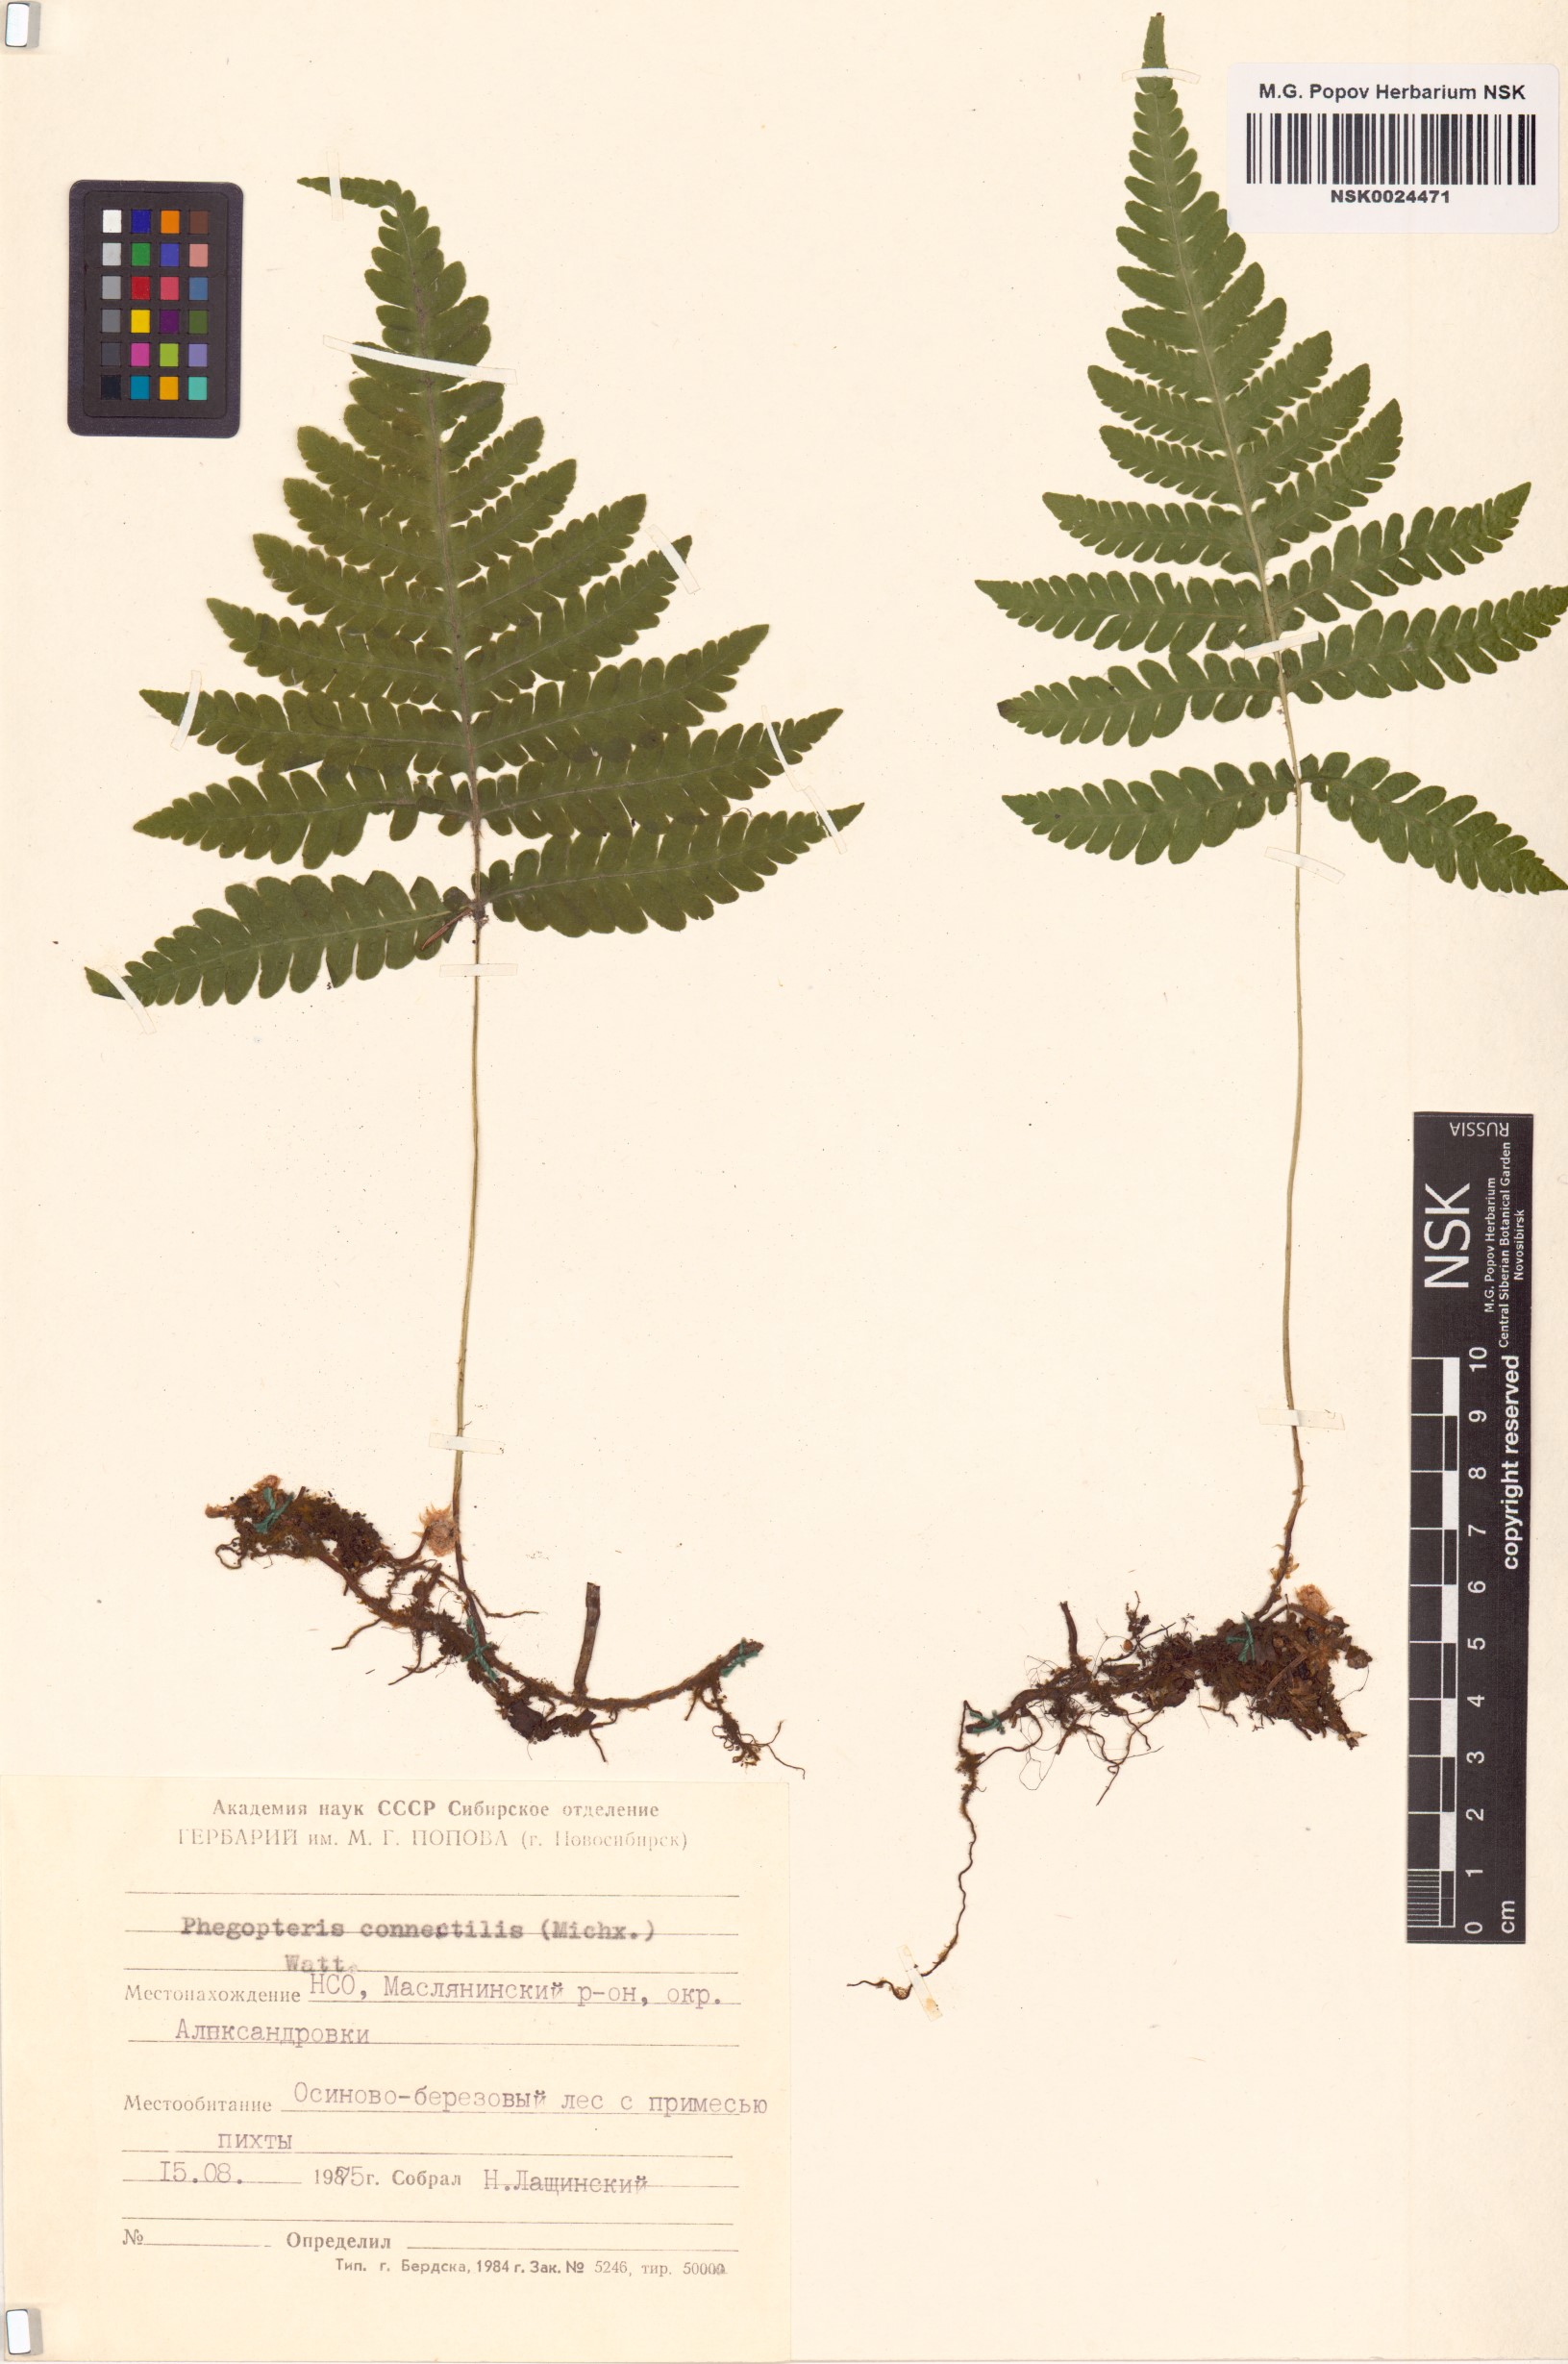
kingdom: Plantae
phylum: Tracheophyta
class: Polypodiopsida
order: Polypodiales
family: Thelypteridaceae
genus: Phegopteris
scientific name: Phegopteris connectilis
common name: Beech fern
